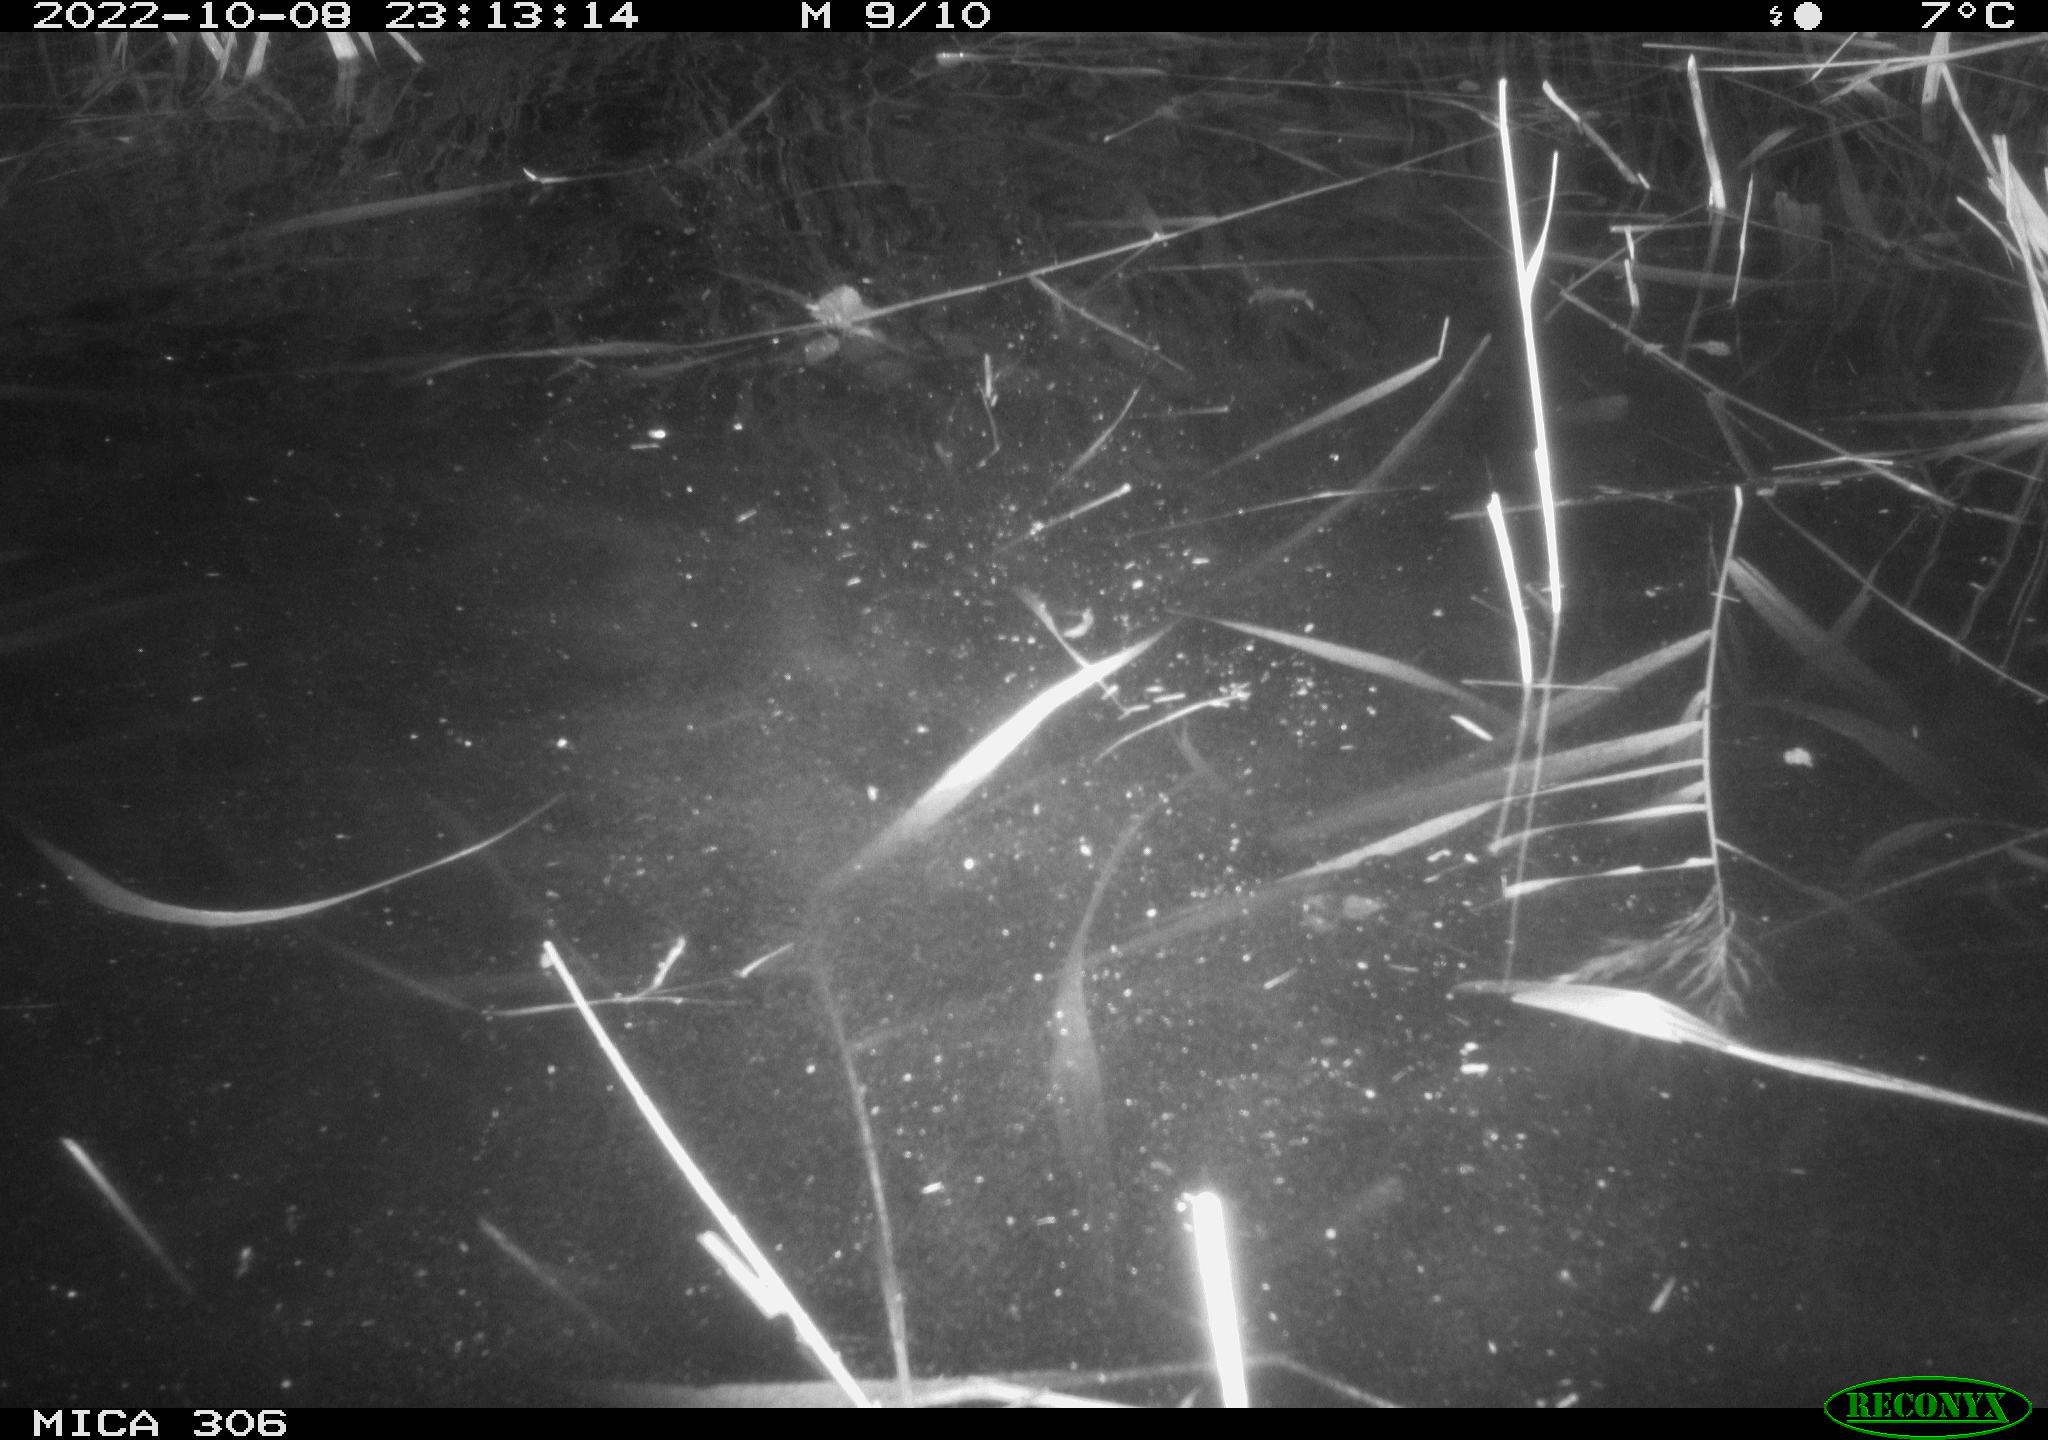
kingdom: Animalia
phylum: Chordata
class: Mammalia
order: Rodentia
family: Muridae
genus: Rattus
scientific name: Rattus norvegicus
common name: Brown rat
